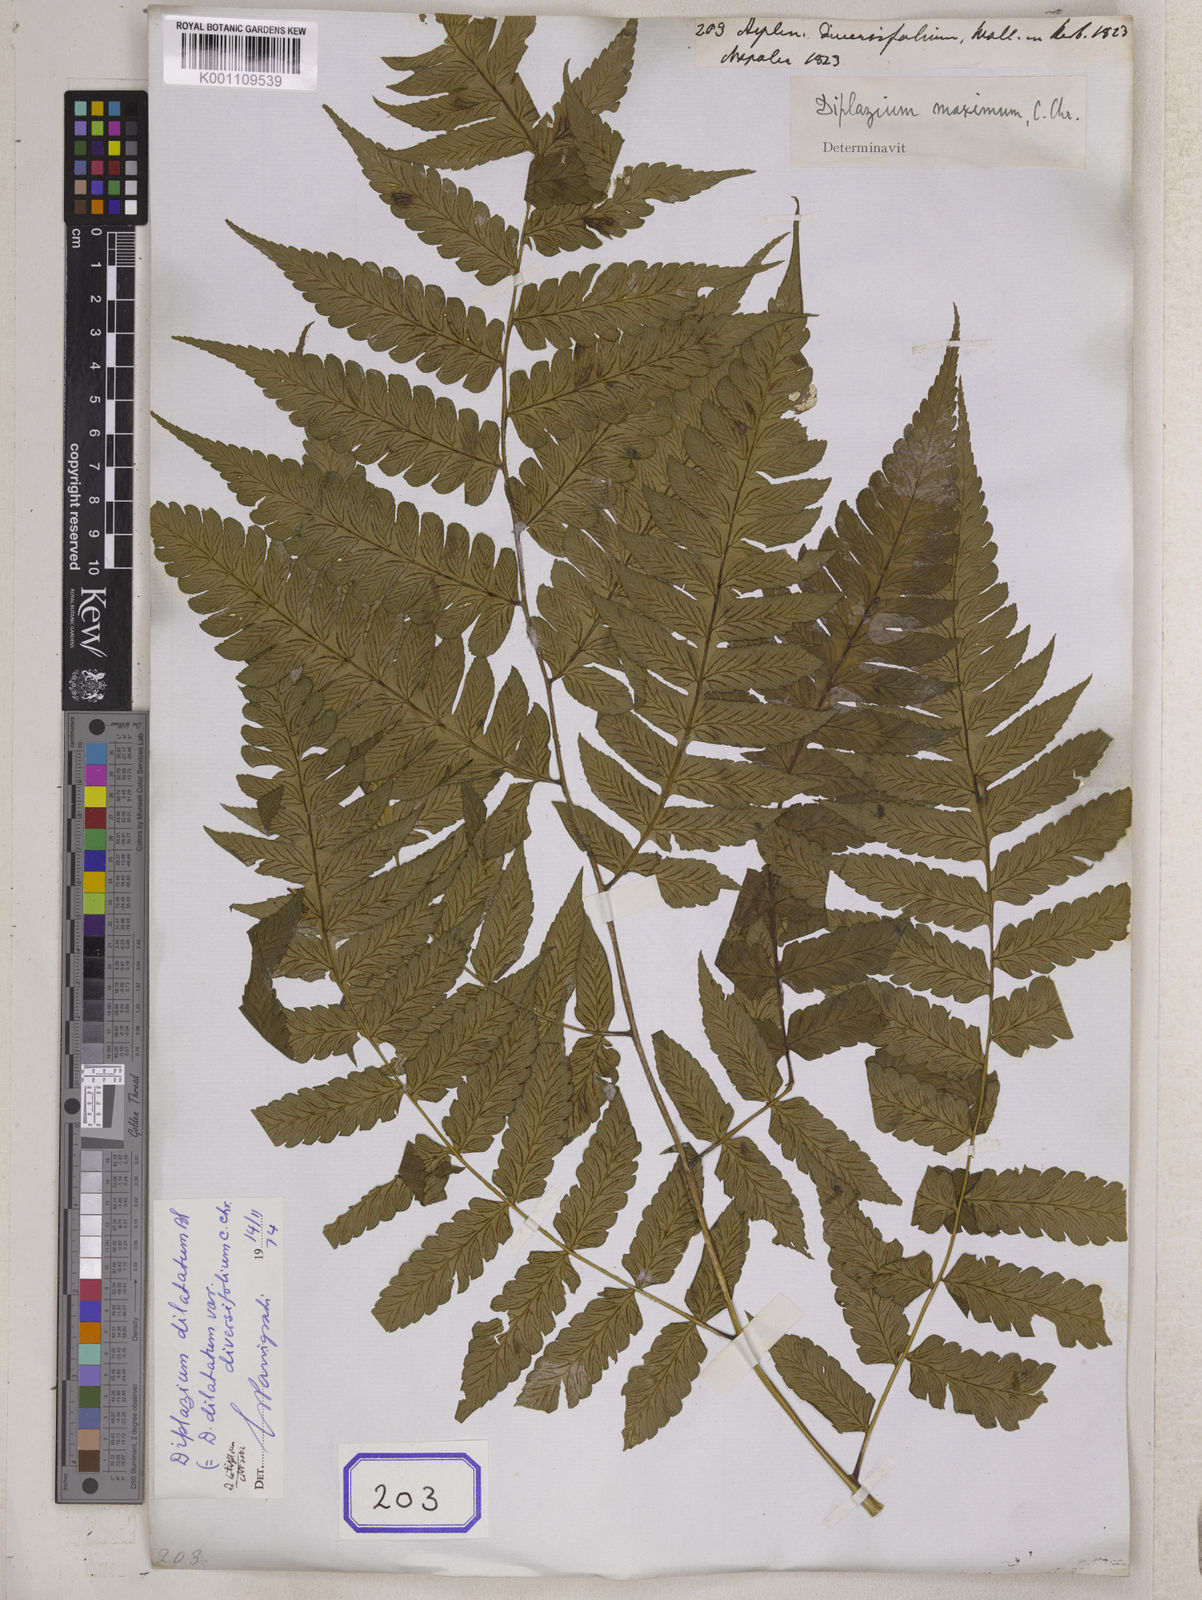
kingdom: Plantae
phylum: Tracheophyta
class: Polypodiopsida
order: Polypodiales
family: Athyriaceae
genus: Diplazium
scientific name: Diplazium maximum
